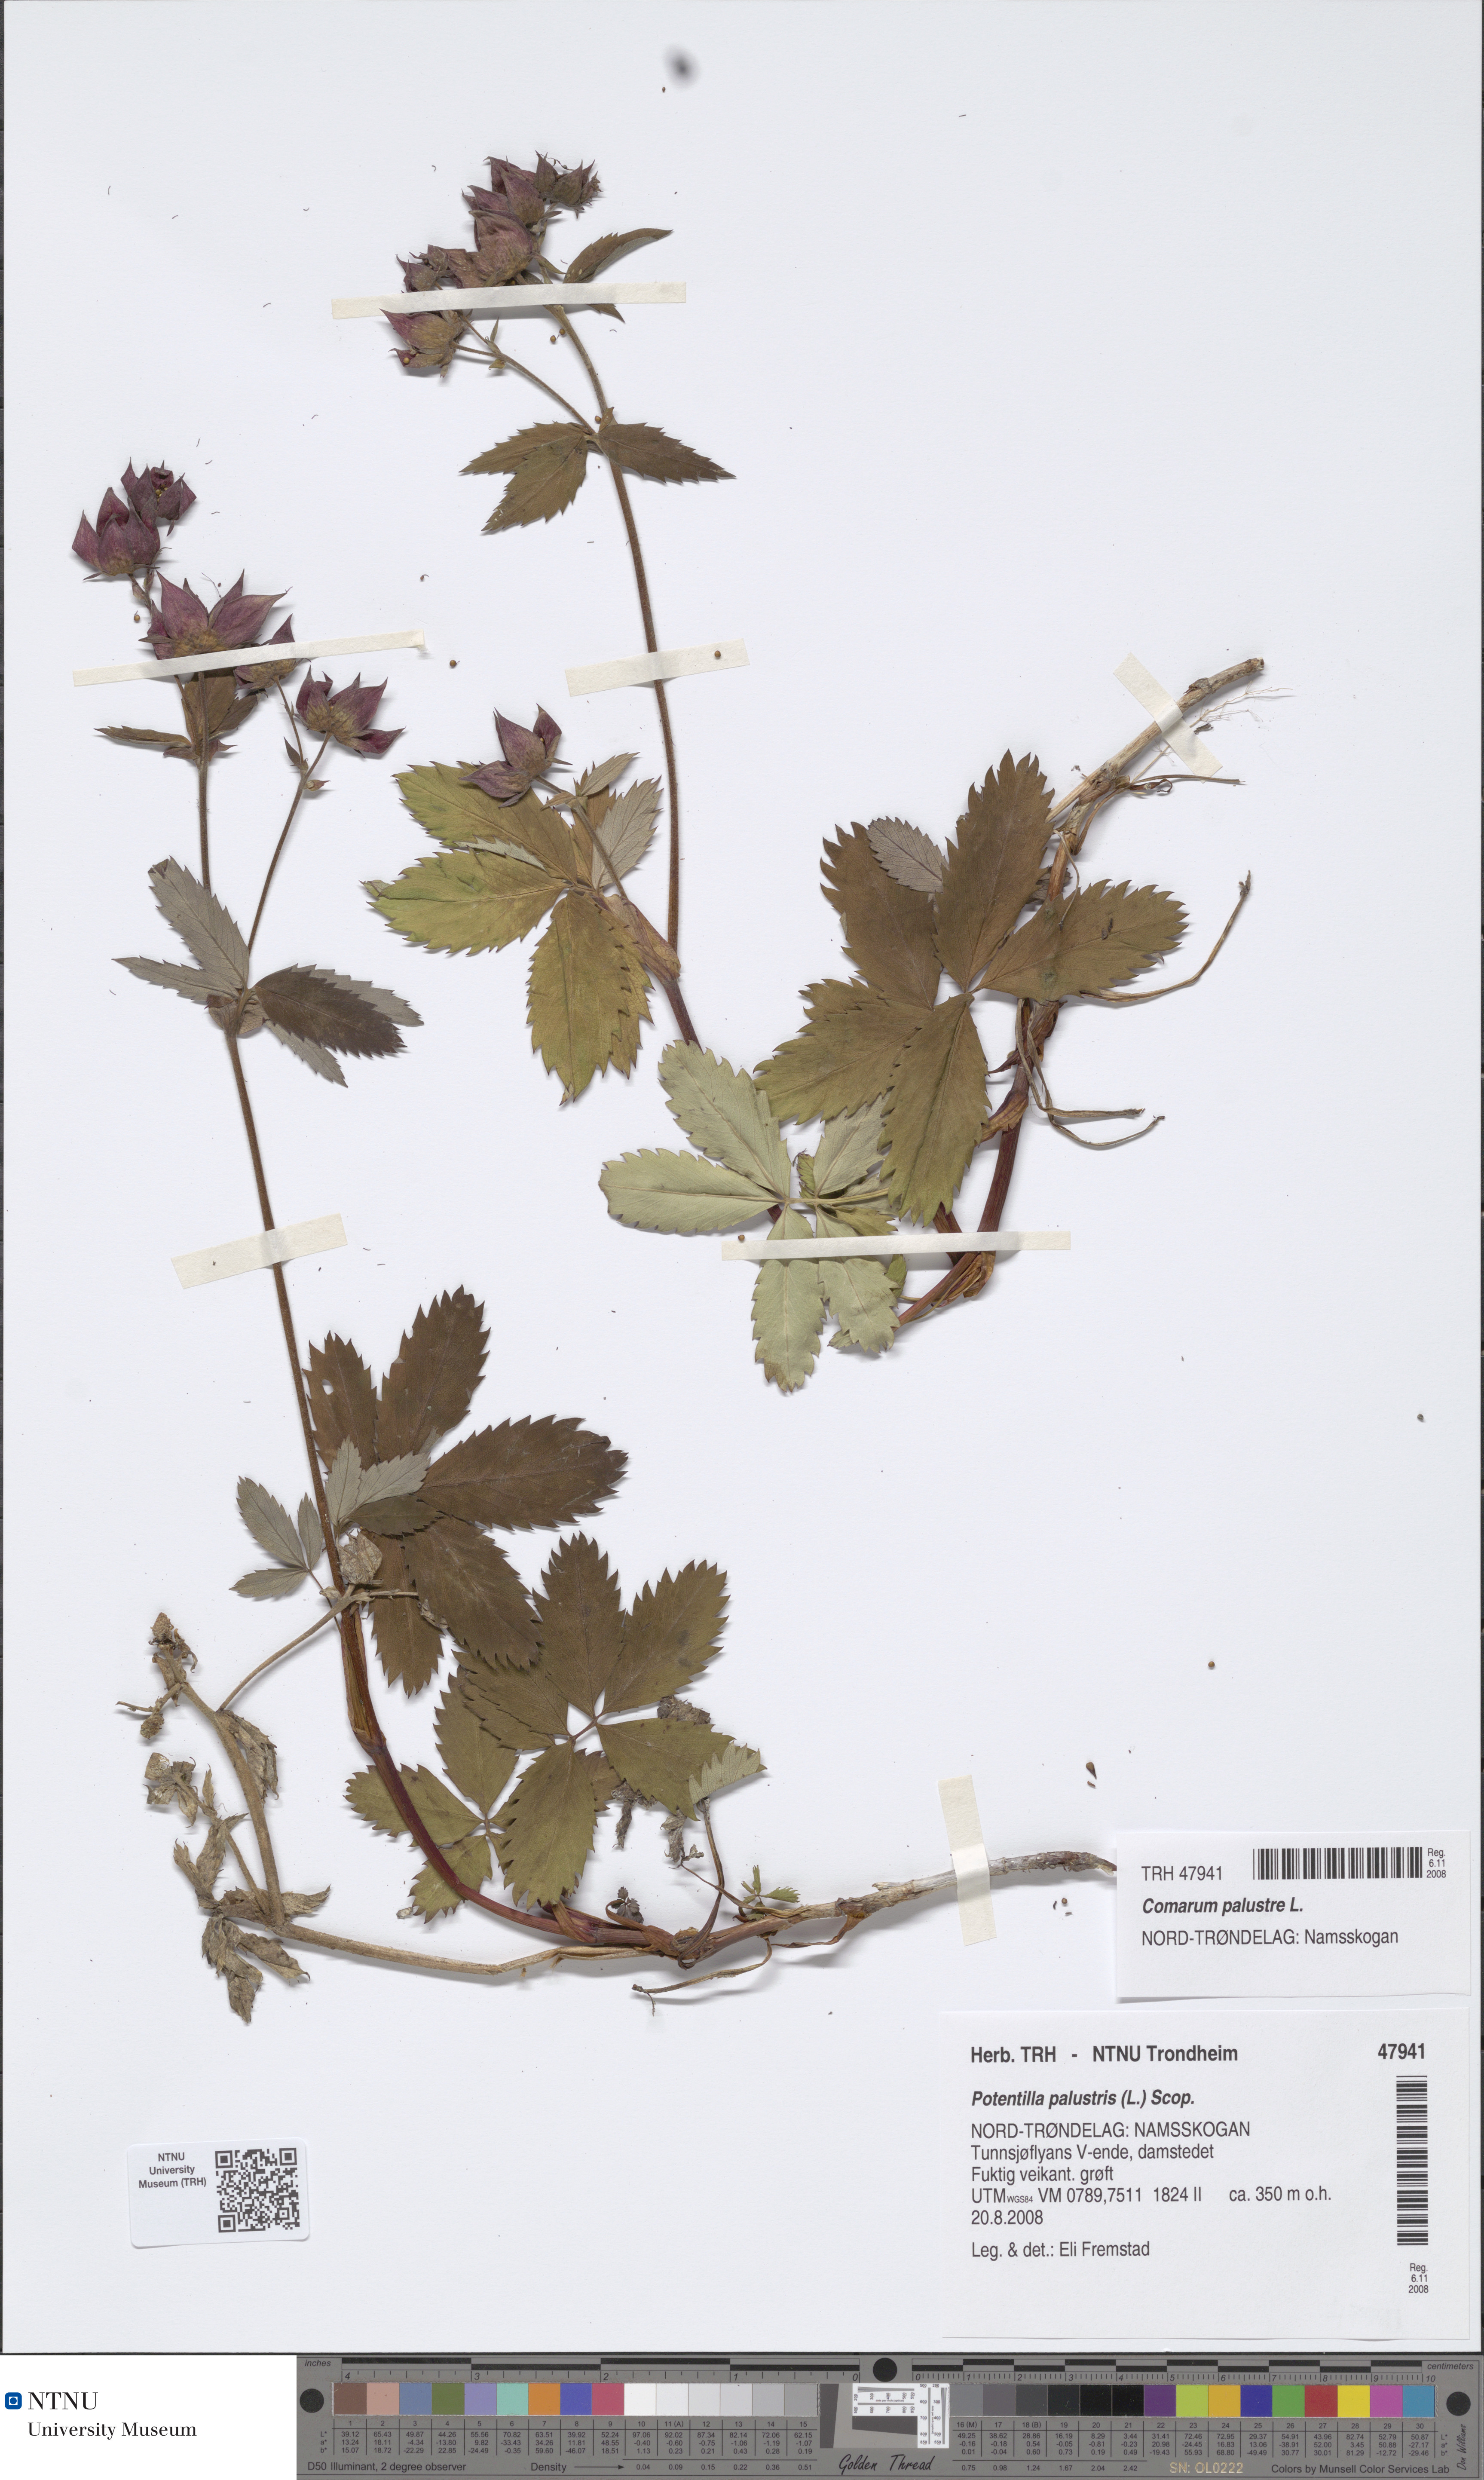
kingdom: Plantae
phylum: Tracheophyta
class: Magnoliopsida
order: Rosales
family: Rosaceae
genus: Comarum
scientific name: Comarum palustre
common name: Marsh cinquefoil
